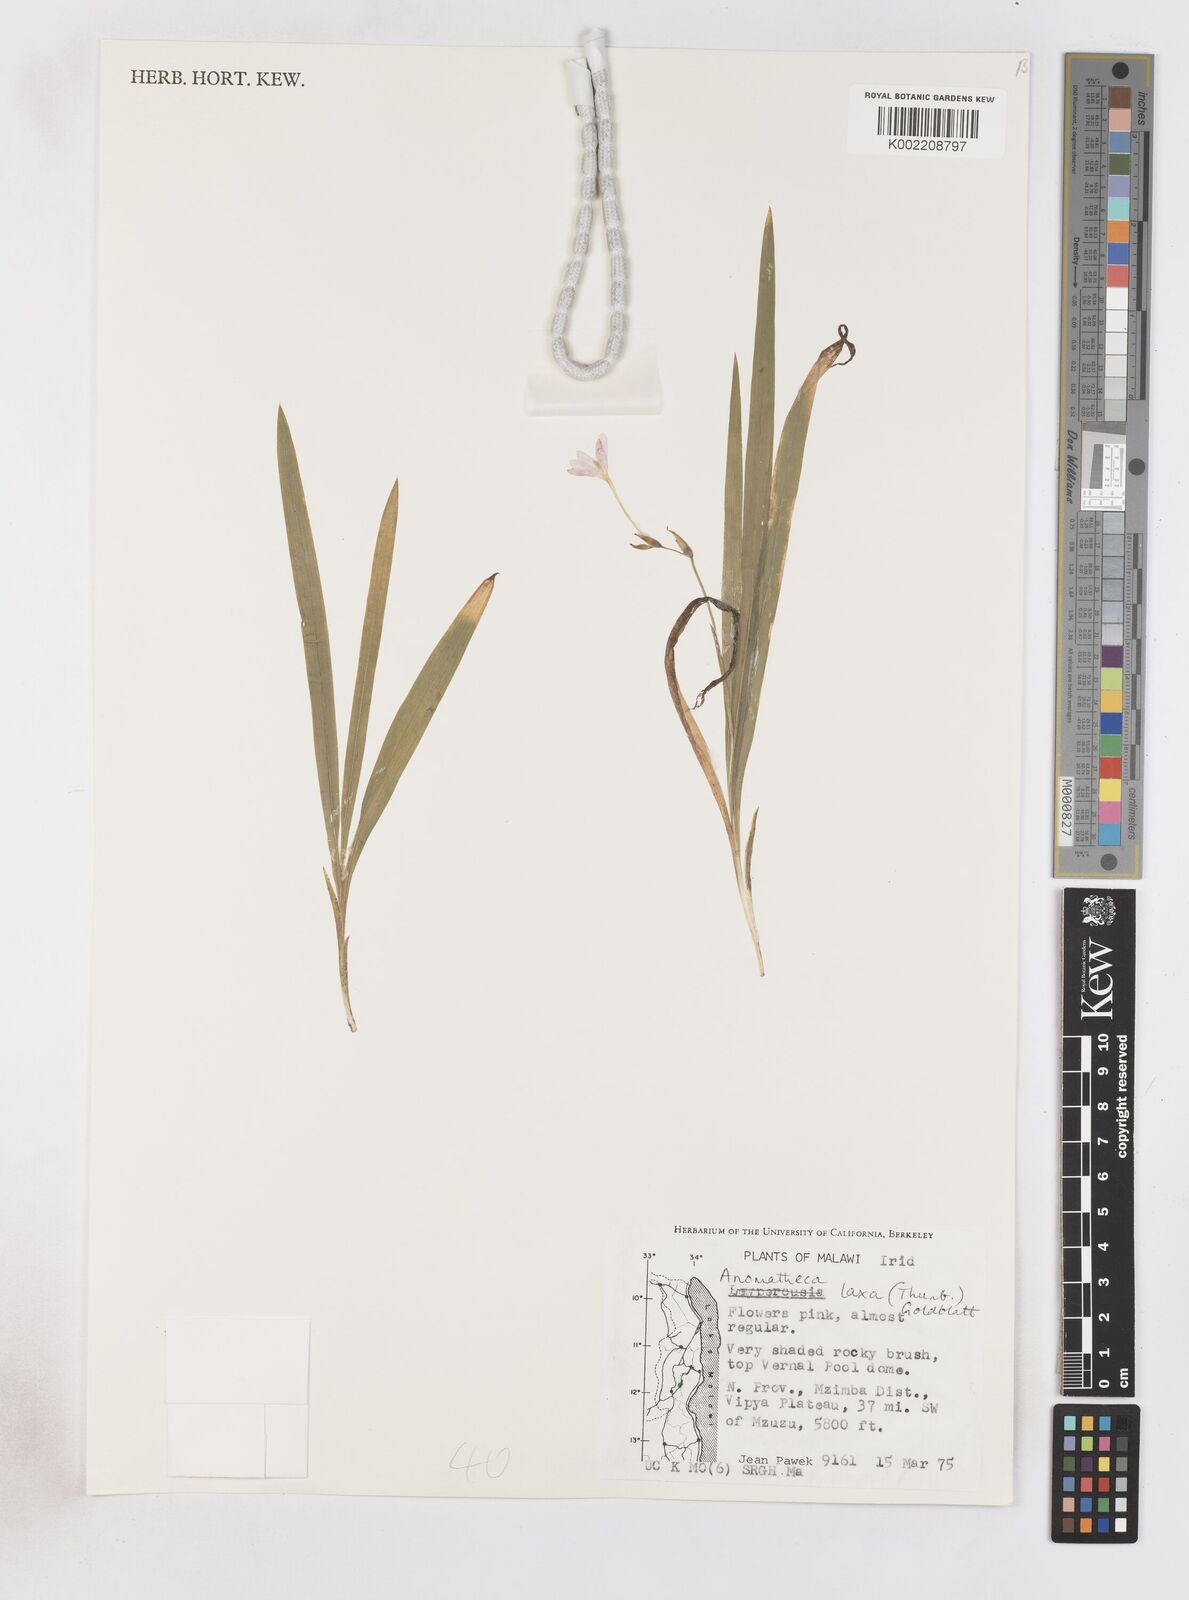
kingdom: Plantae
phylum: Tracheophyta
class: Liliopsida
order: Asparagales
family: Iridaceae
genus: Freesia
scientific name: Freesia laxa
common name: False freesia
